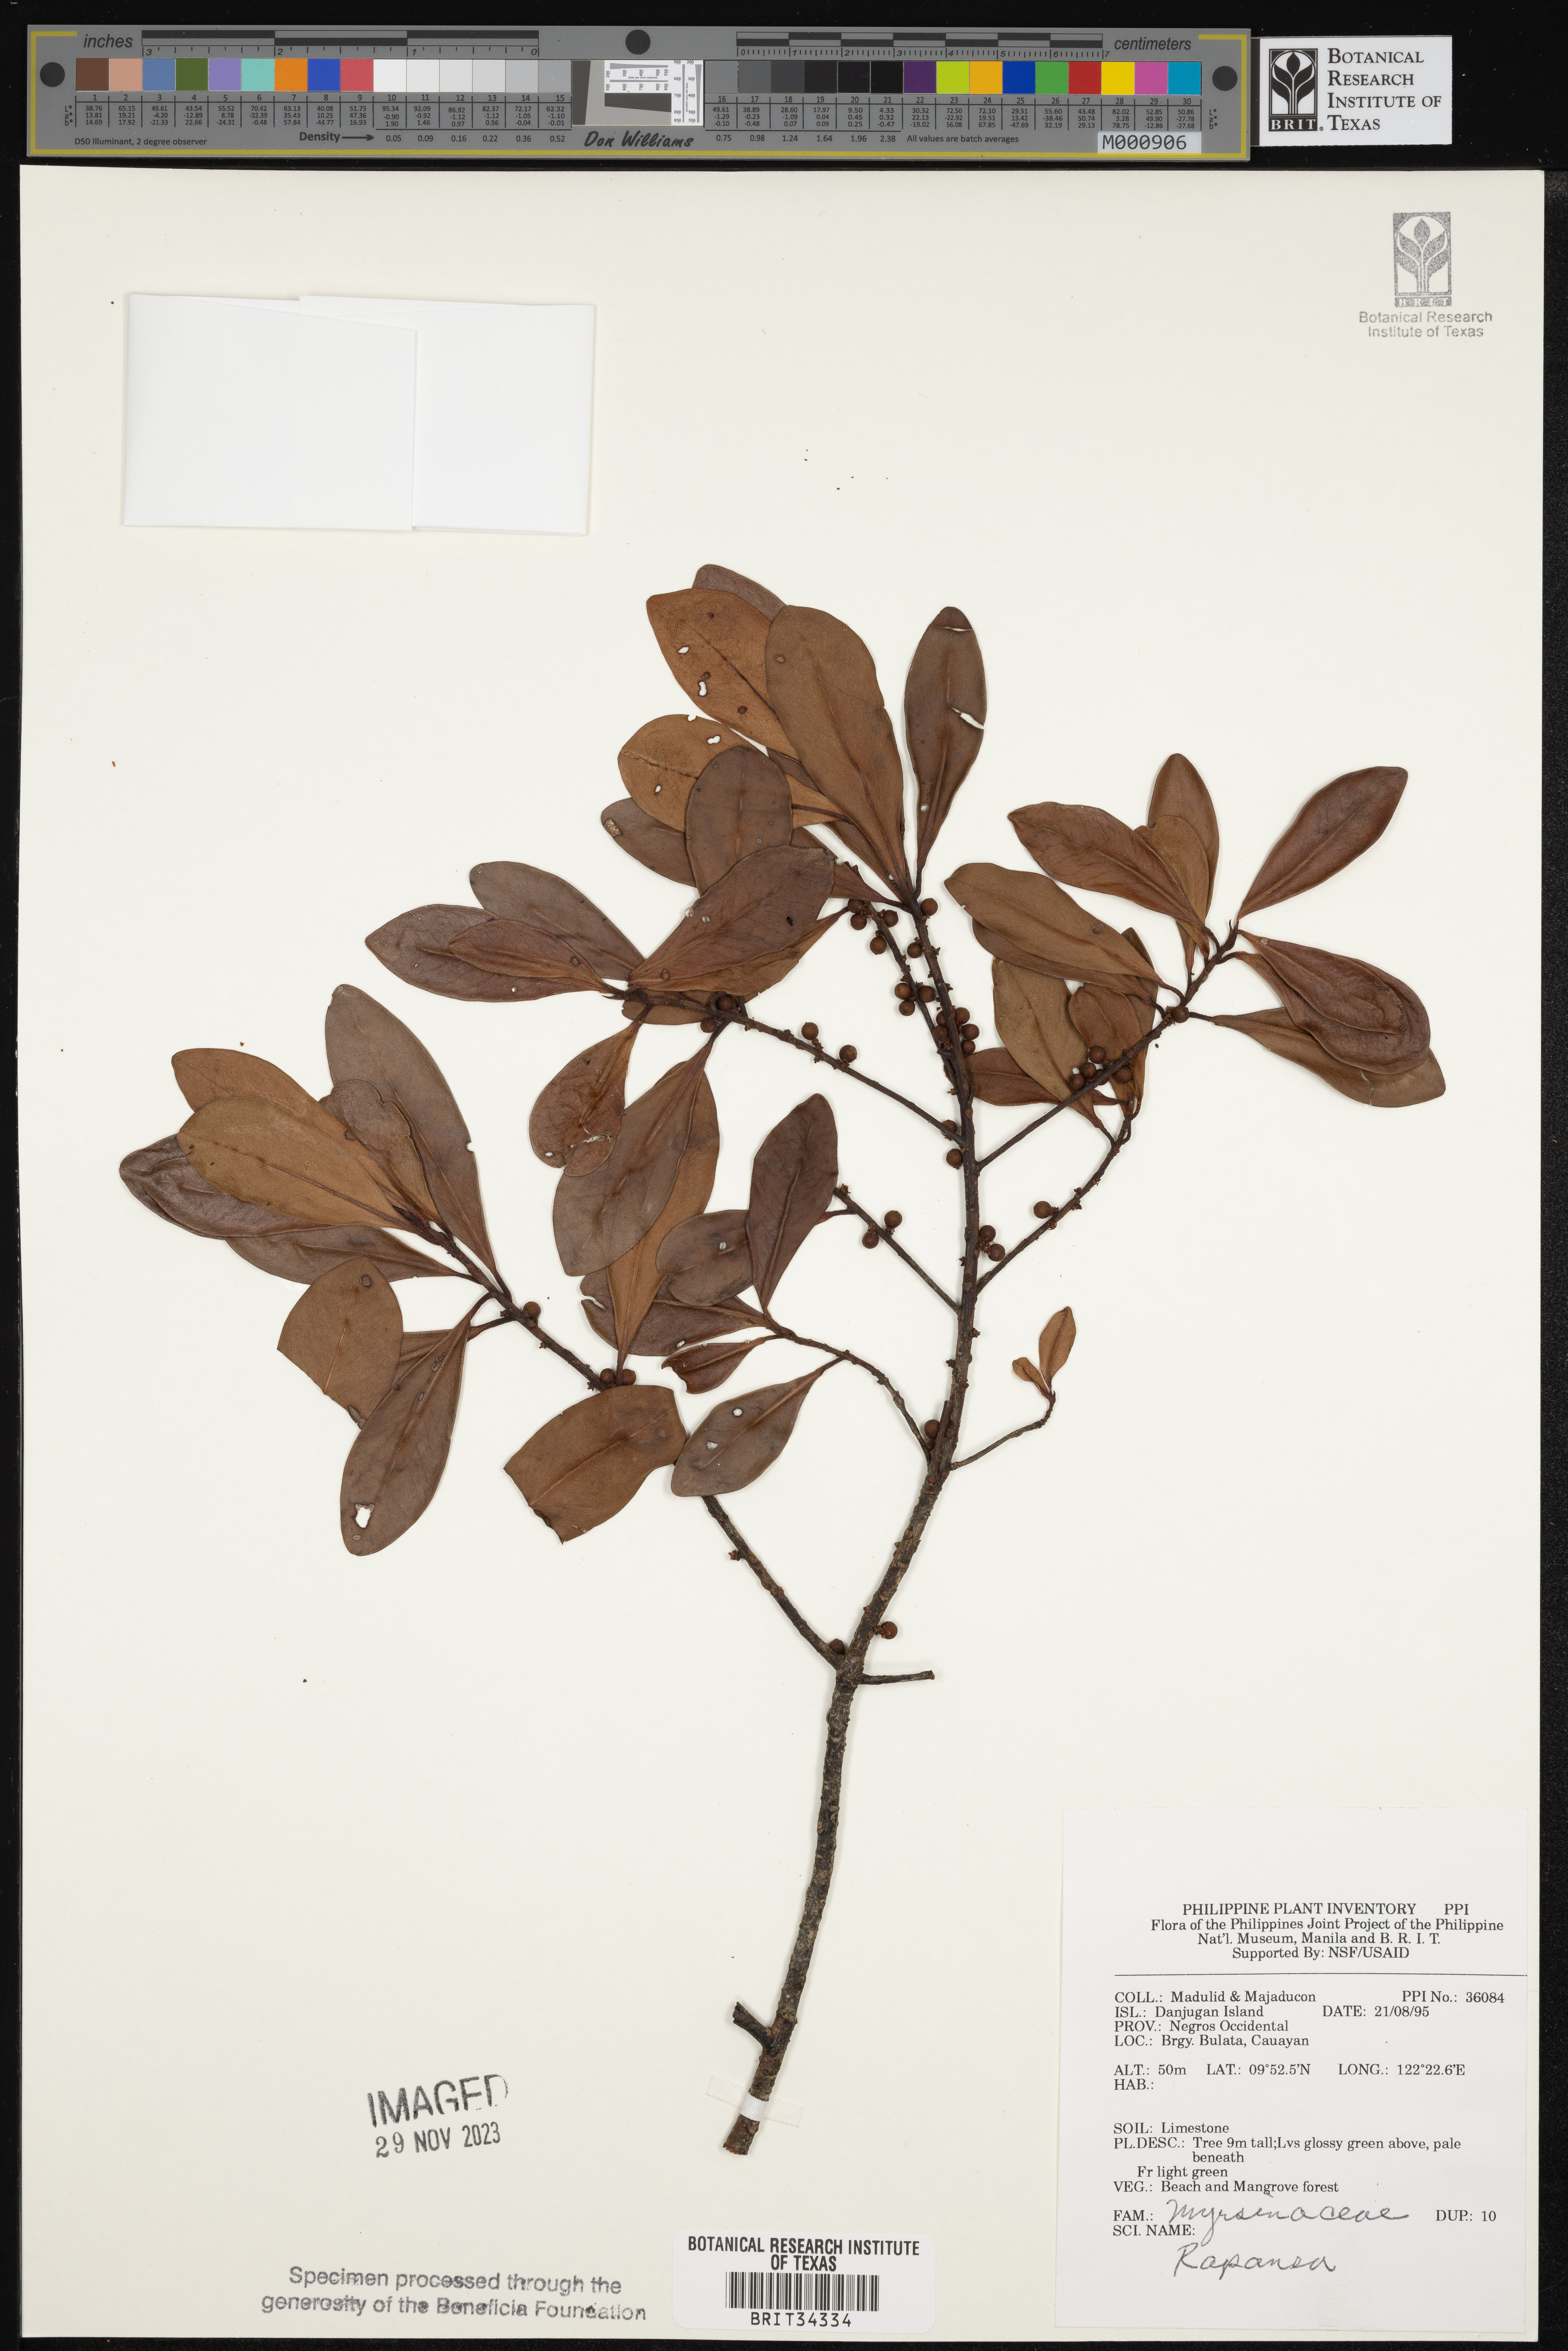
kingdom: Plantae
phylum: Tracheophyta
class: Magnoliopsida
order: Ericales
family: Primulaceae
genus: Myrsine
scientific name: Myrsine
